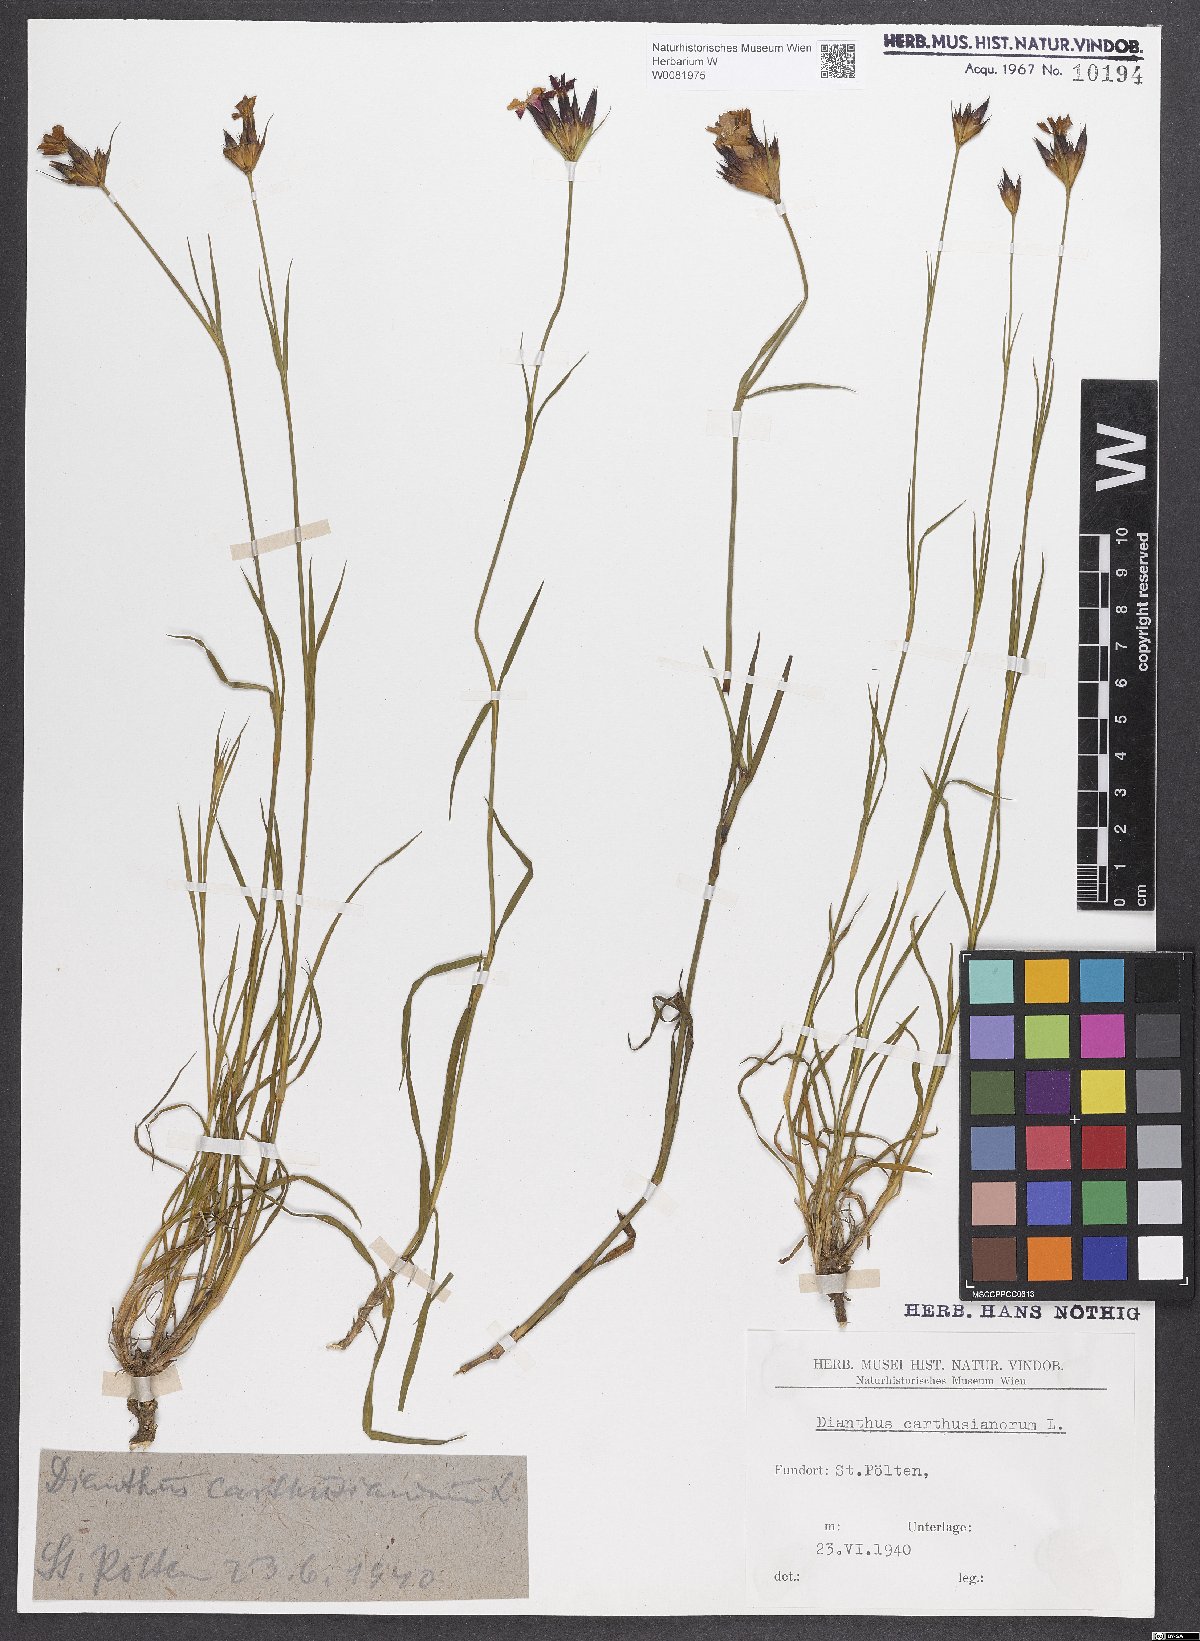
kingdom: Plantae
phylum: Tracheophyta
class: Magnoliopsida
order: Caryophyllales
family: Caryophyllaceae
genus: Dianthus
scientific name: Dianthus carthusianorum
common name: Carthusian pink
